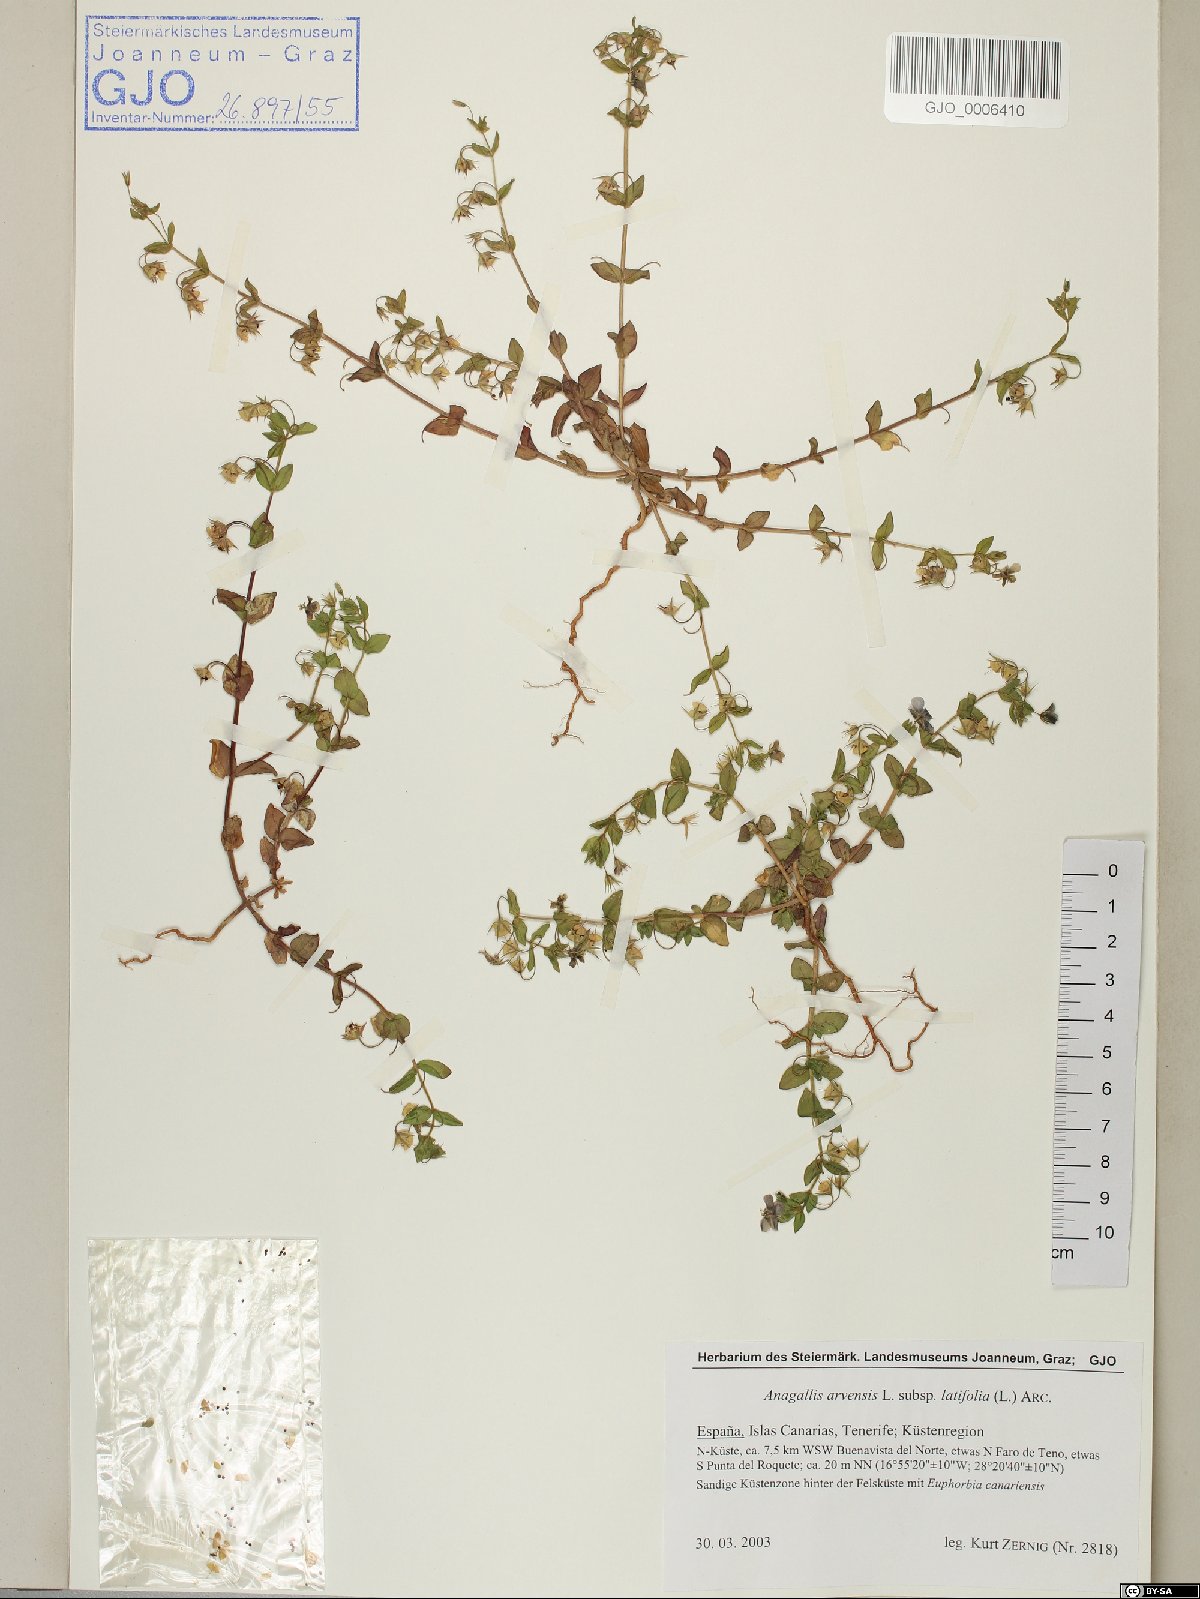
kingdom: Plantae
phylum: Tracheophyta
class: Magnoliopsida
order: Ericales
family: Primulaceae
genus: Lysimachia
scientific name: Lysimachia loeflingii
